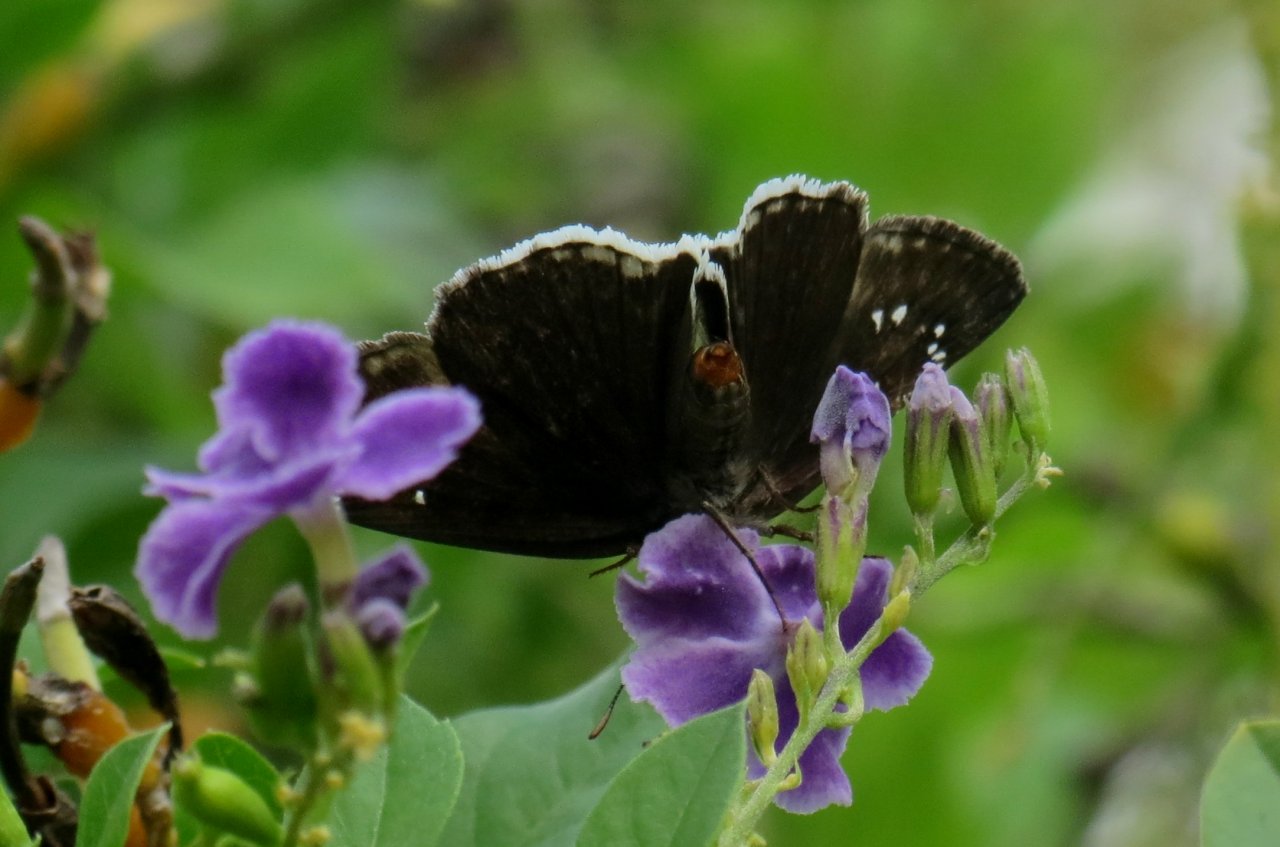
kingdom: Animalia
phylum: Arthropoda
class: Insecta
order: Lepidoptera
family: Hesperiidae
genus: Erynnis
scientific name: Erynnis tristis
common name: Mournful Duskywing
